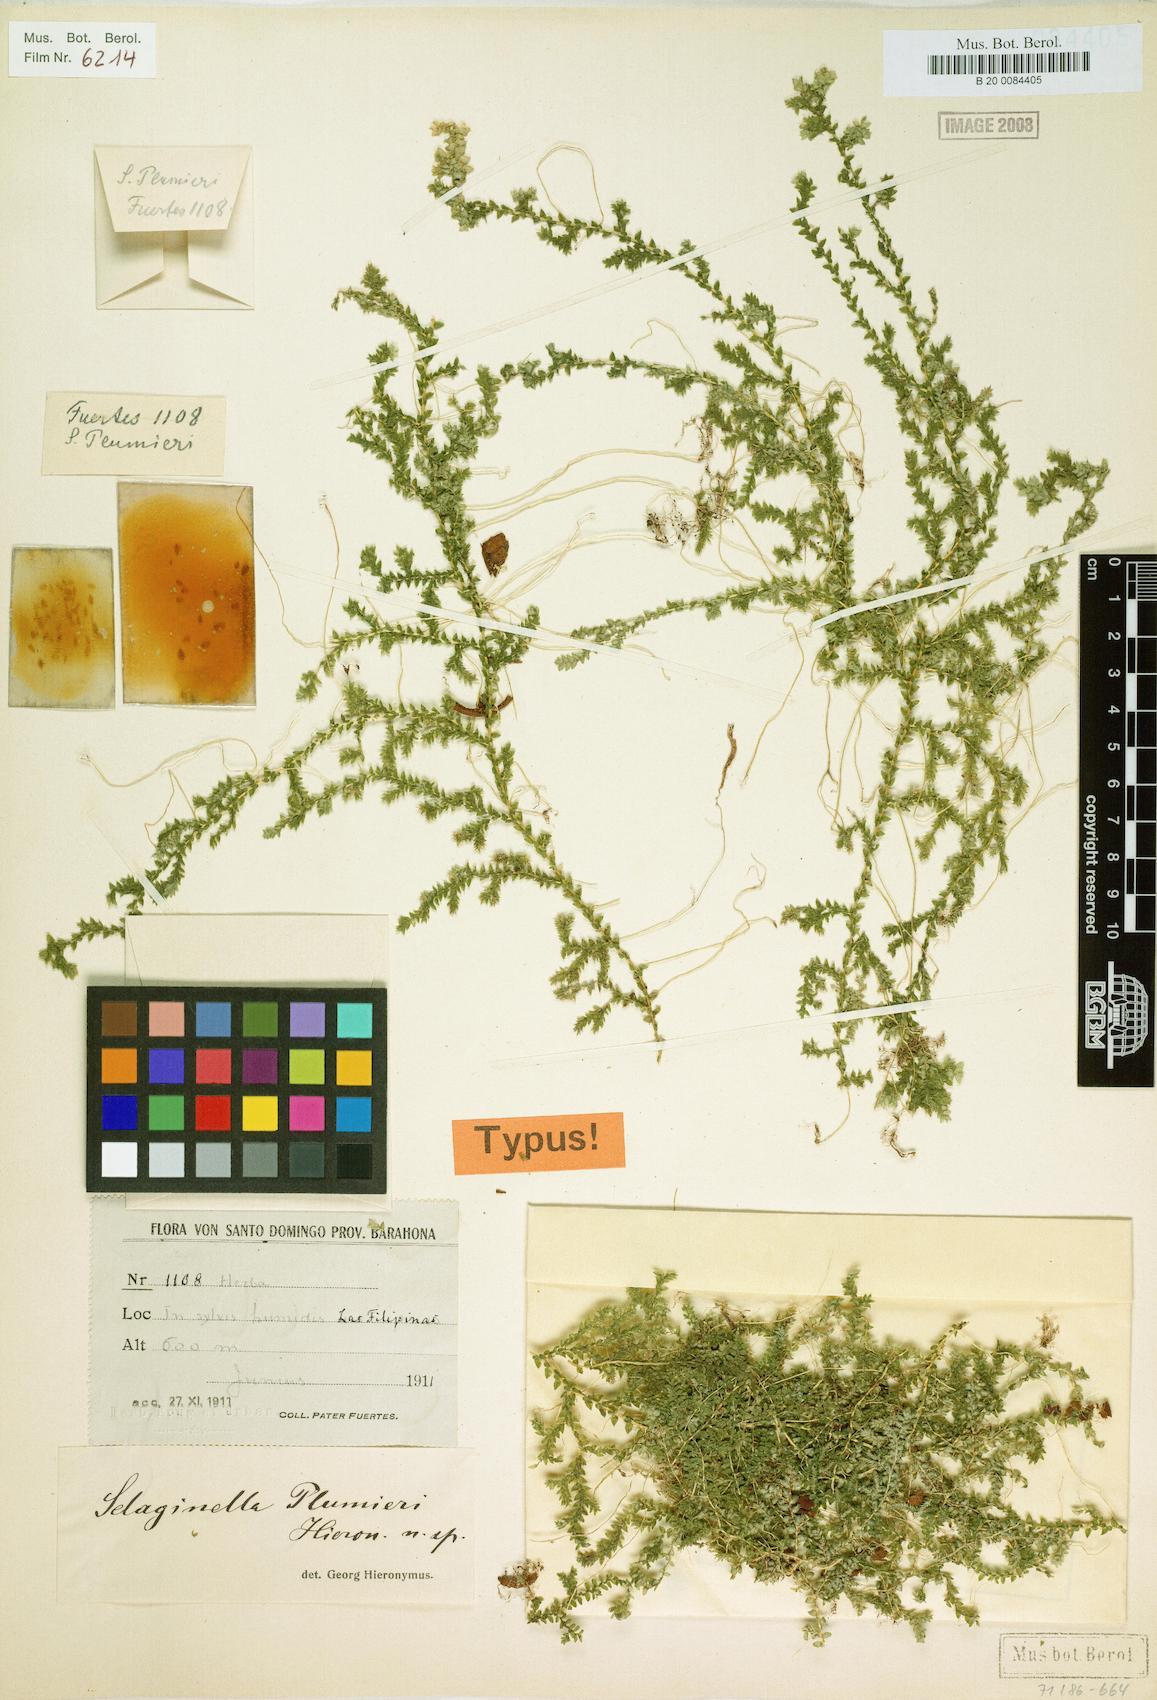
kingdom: Plantae
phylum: Tracheophyta
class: Lycopodiopsida
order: Selaginellales
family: Selaginellaceae
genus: Selaginella
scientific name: Selaginella plumieri
